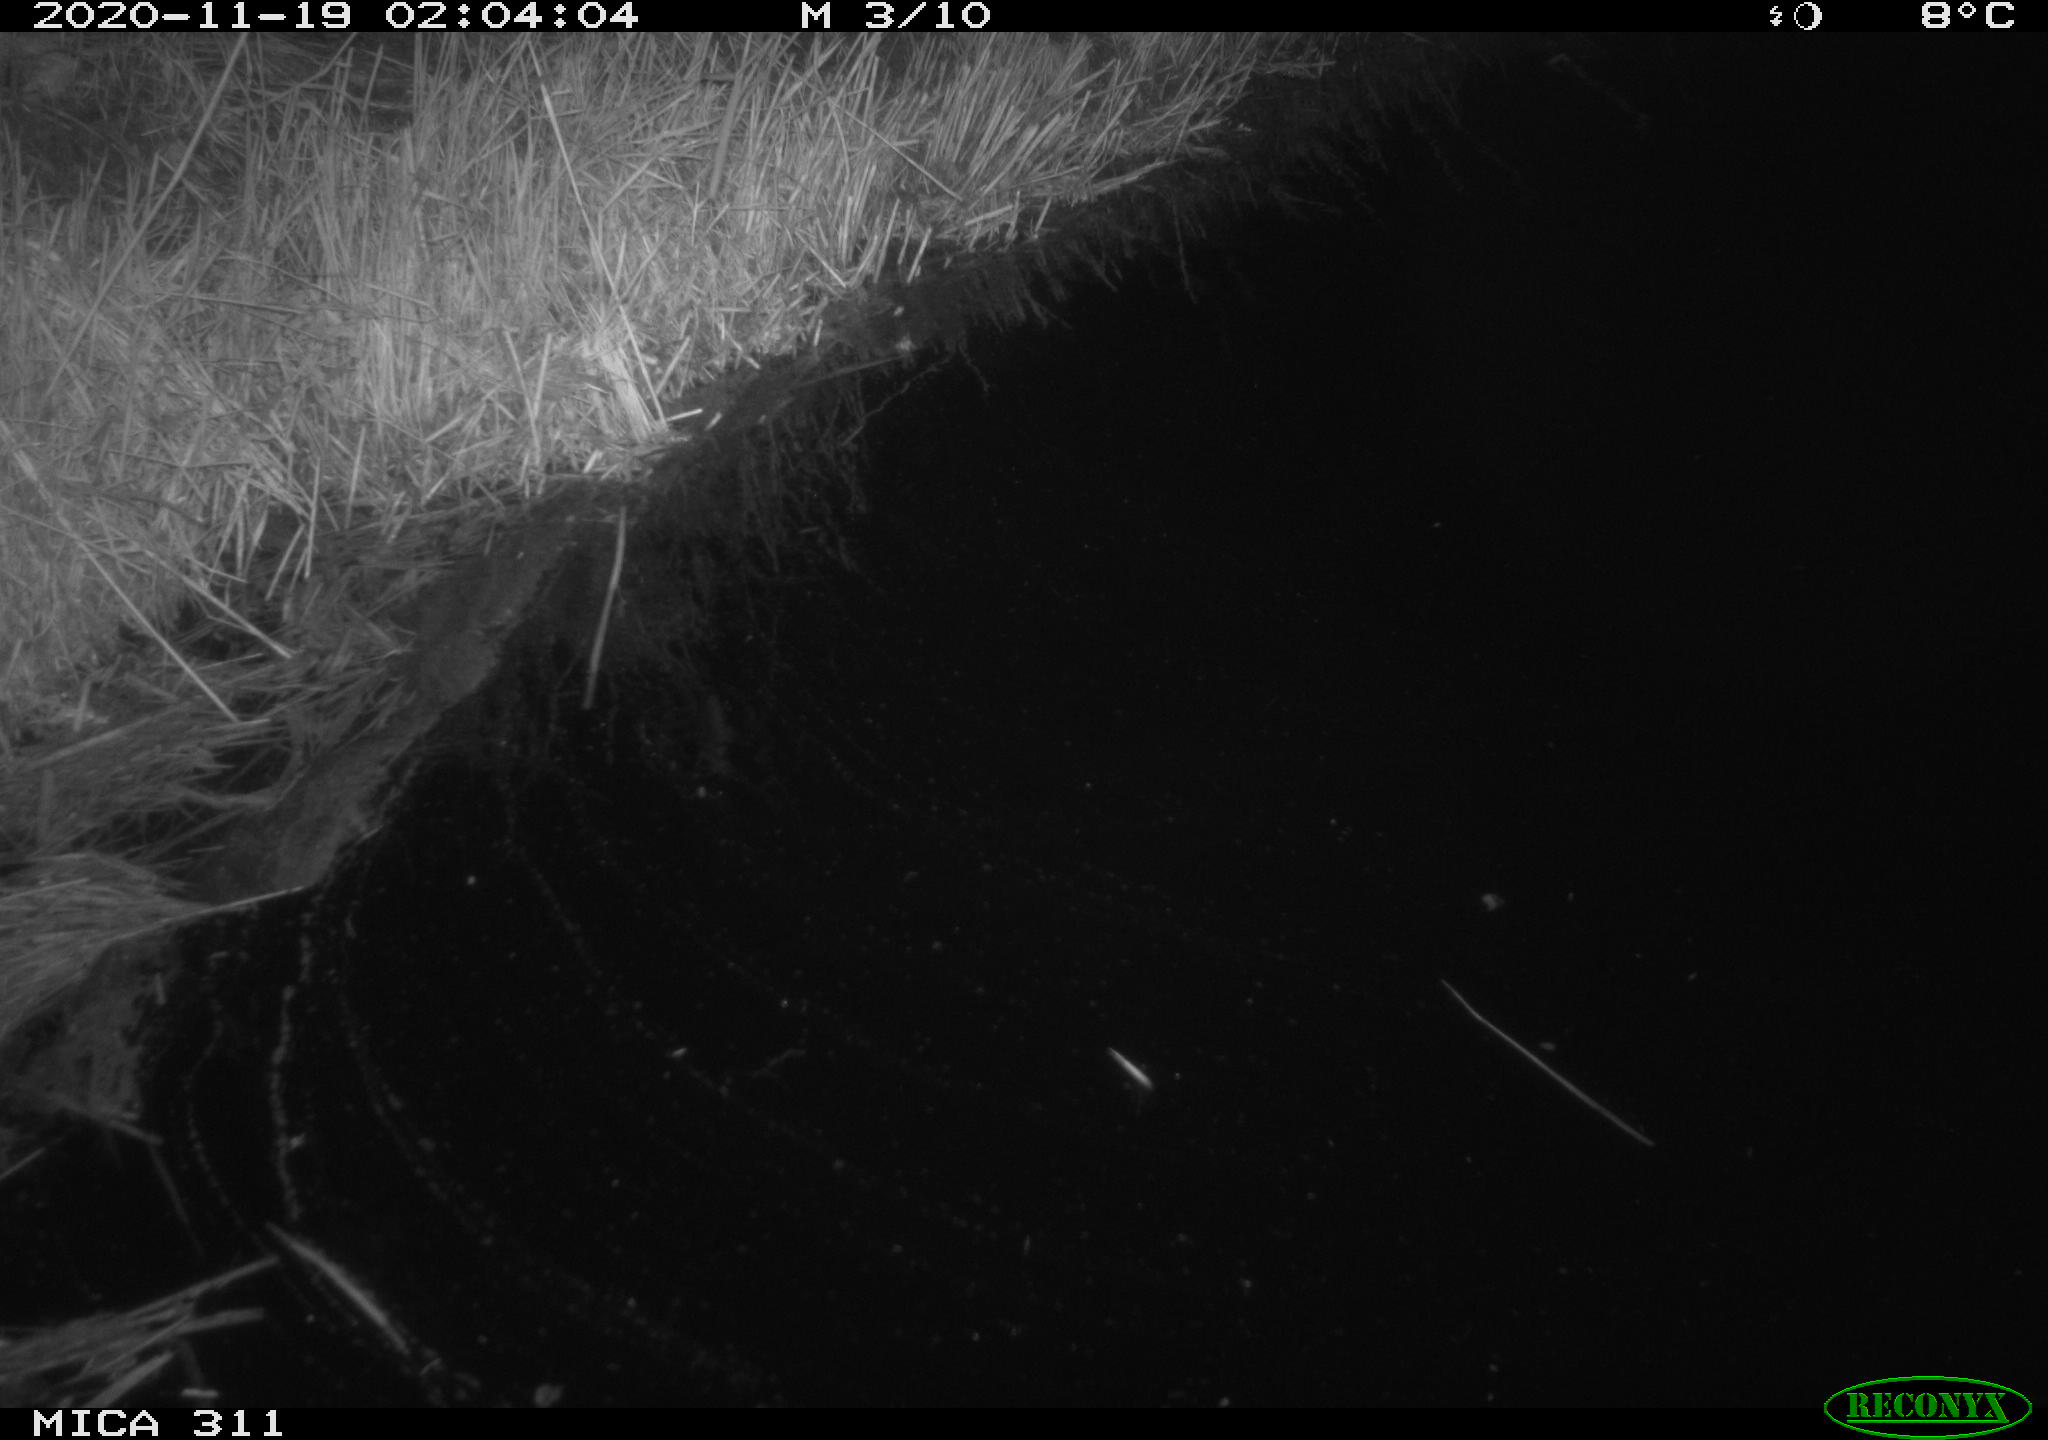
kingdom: Animalia
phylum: Chordata
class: Mammalia
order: Rodentia
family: Muridae
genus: Rattus
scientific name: Rattus norvegicus
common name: Brown rat
